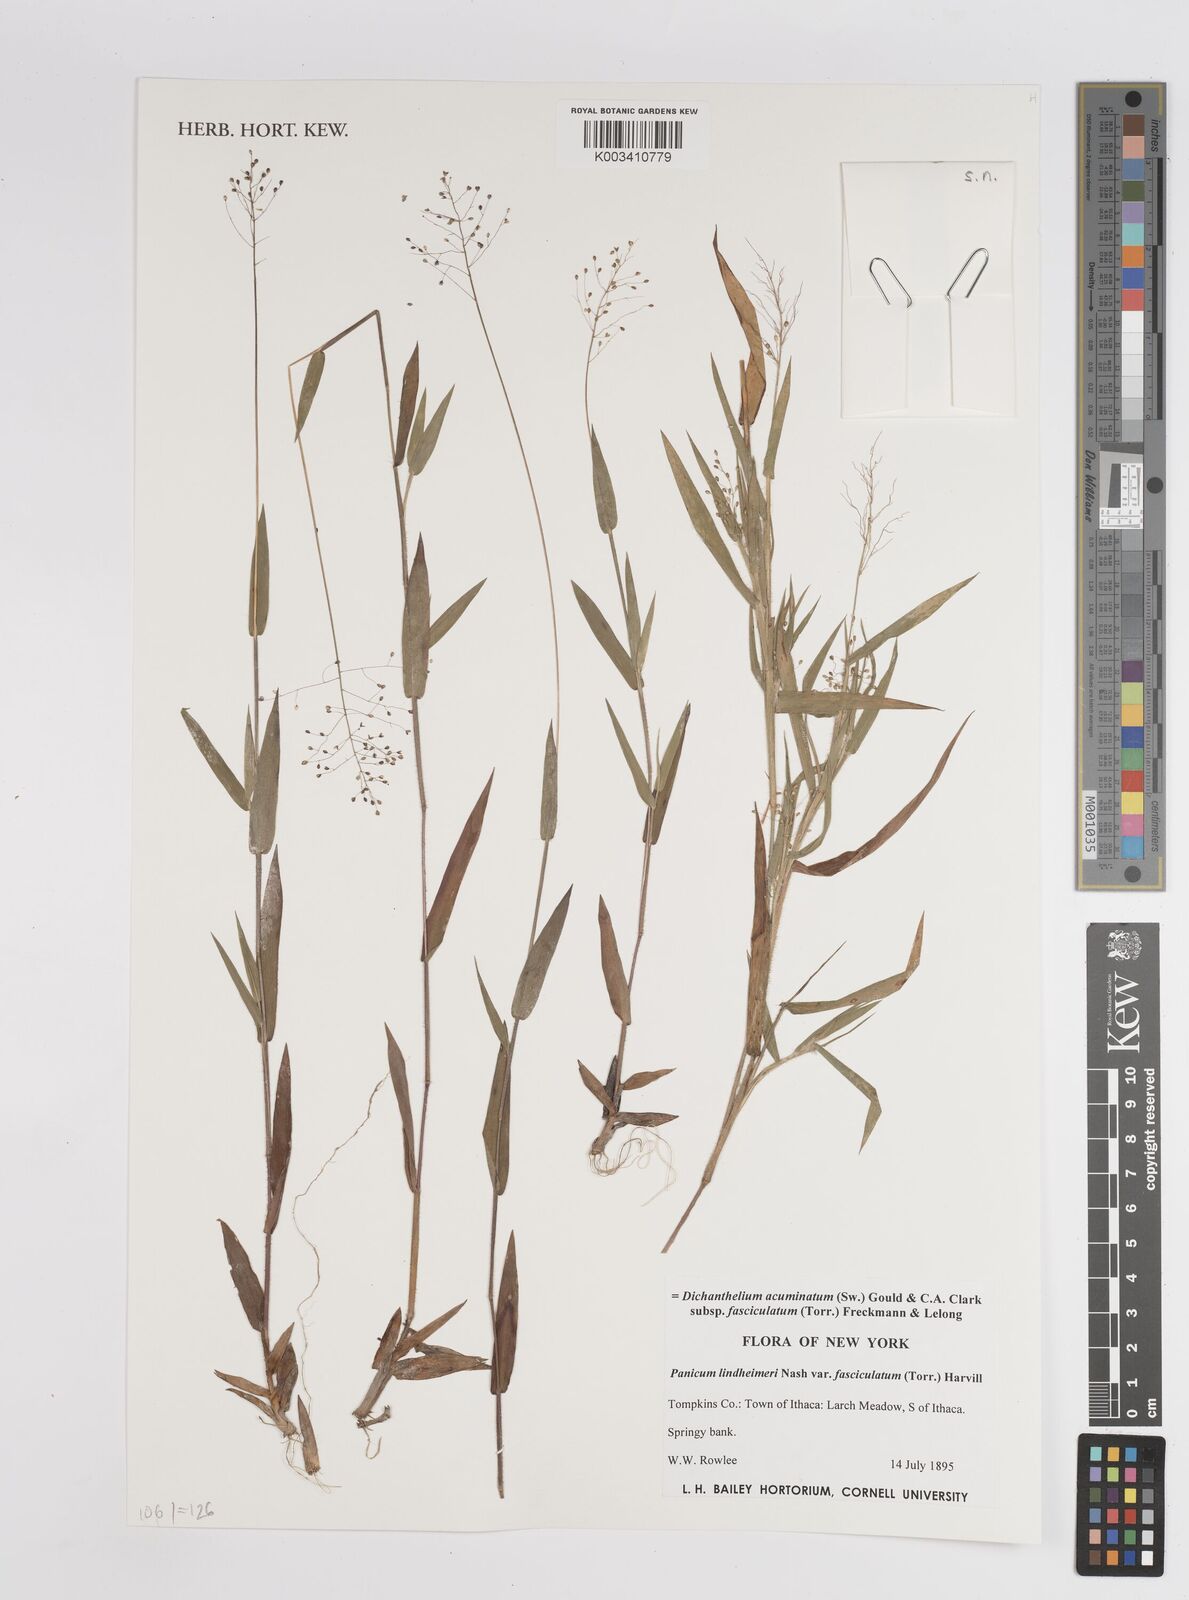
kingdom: Plantae
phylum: Tracheophyta
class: Liliopsida
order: Poales
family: Poaceae
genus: Dichanthelium
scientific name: Dichanthelium acuminatum
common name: Hairy panic grass
